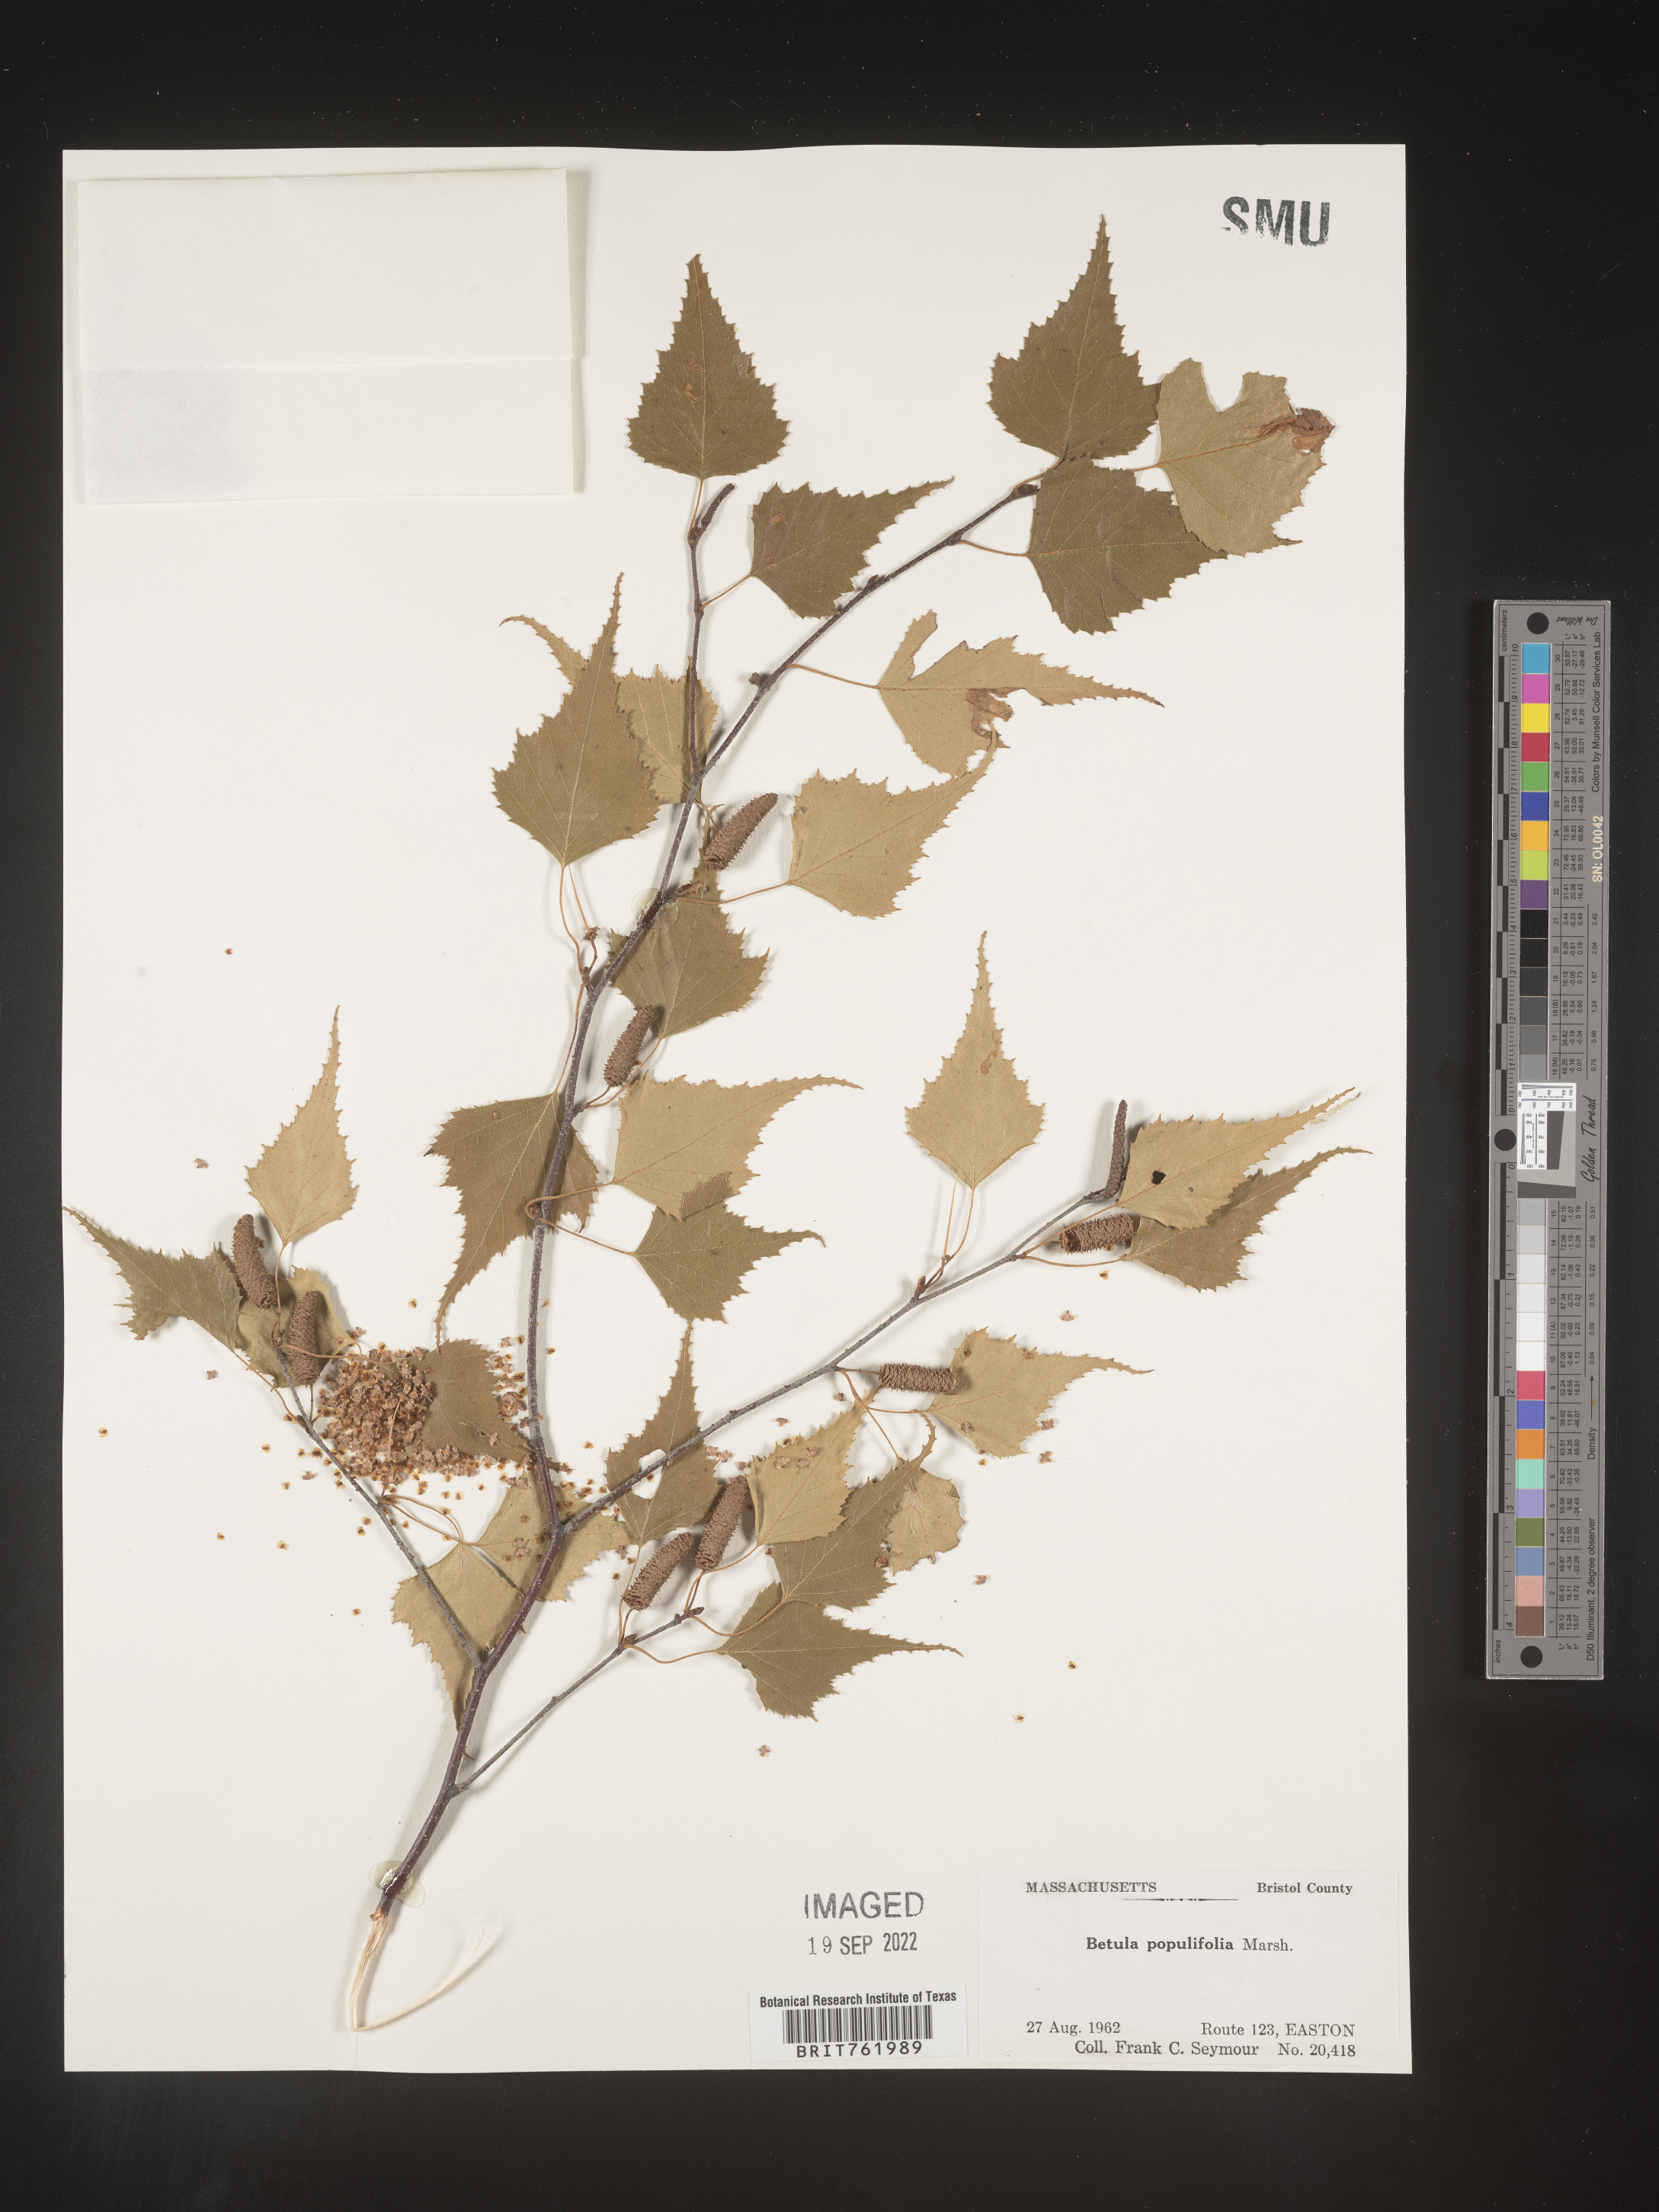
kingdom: Plantae
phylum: Tracheophyta
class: Magnoliopsida
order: Fagales
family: Betulaceae
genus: Betula
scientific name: Betula populifolia
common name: Fire birch
